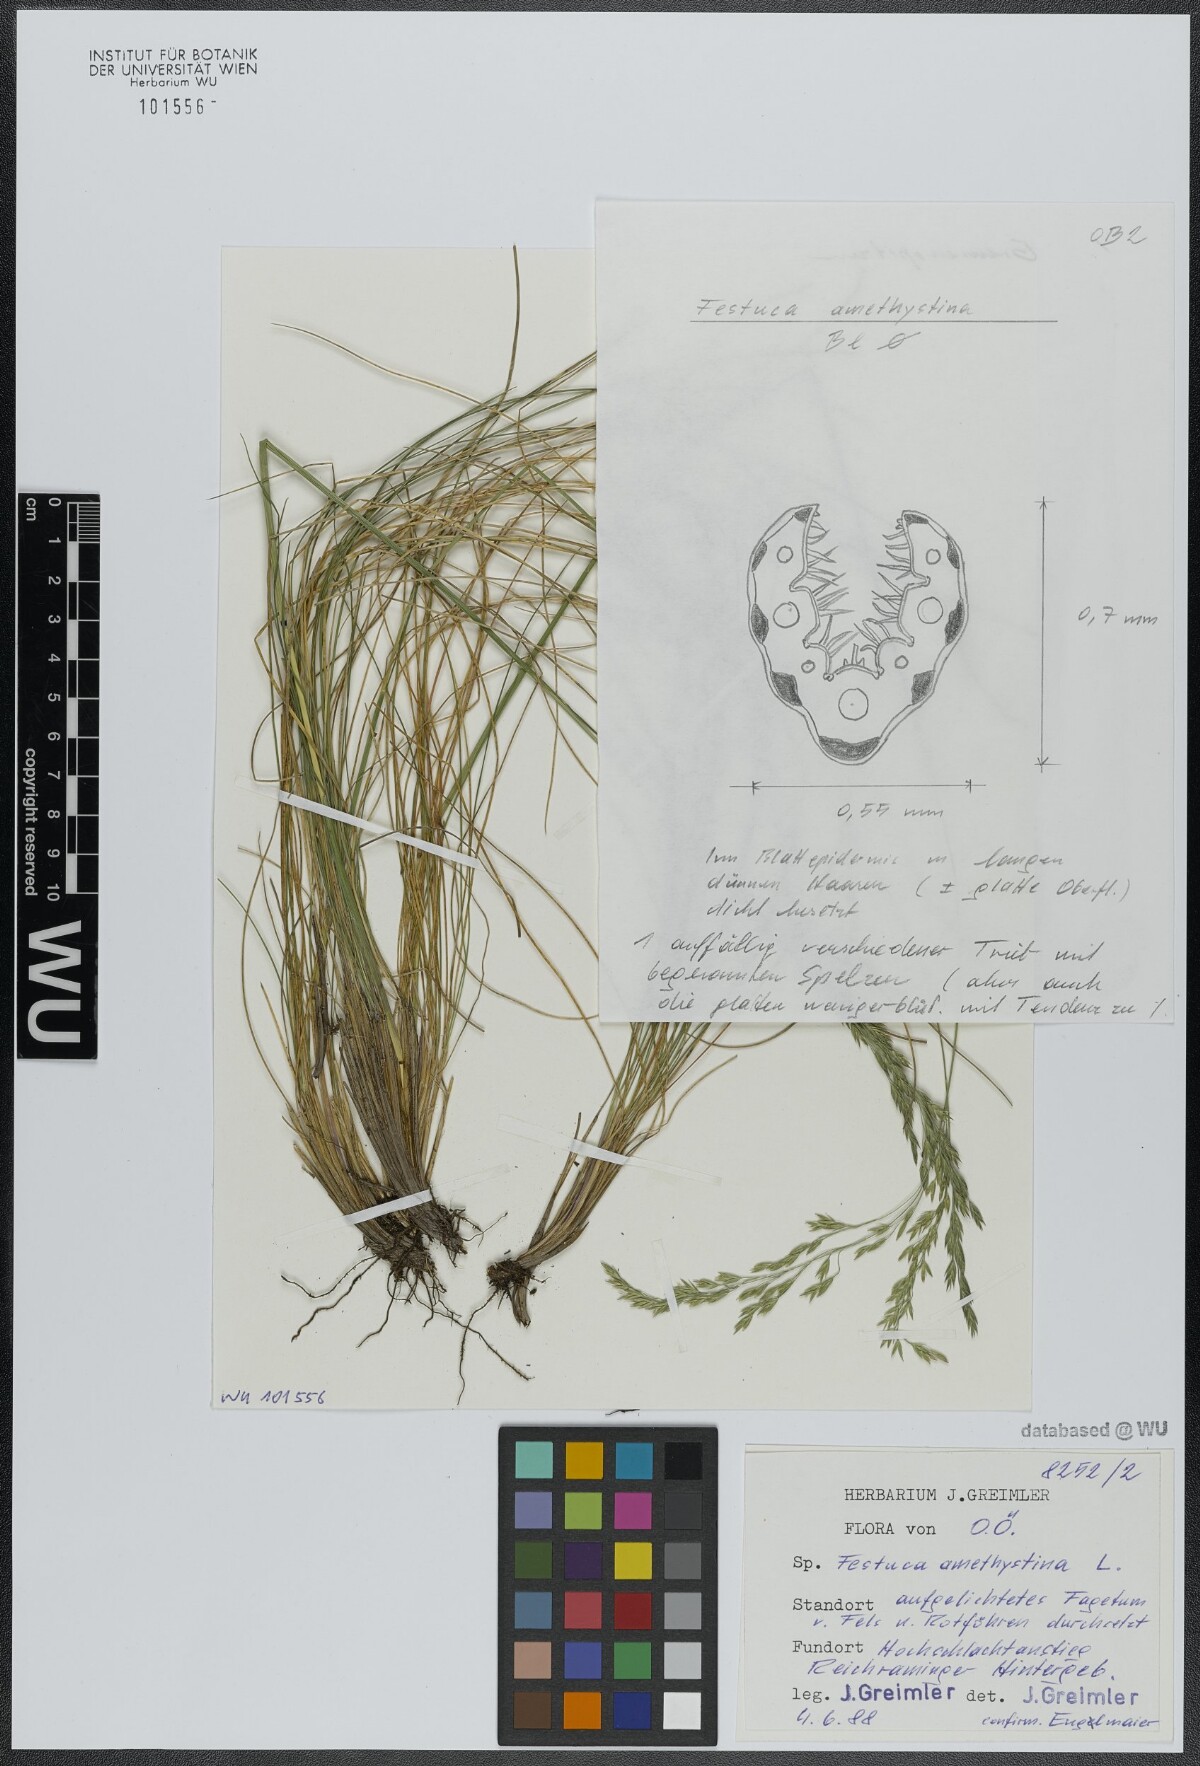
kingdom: Plantae
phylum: Tracheophyta
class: Liliopsida
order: Poales
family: Poaceae
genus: Festuca
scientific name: Festuca amethystina
